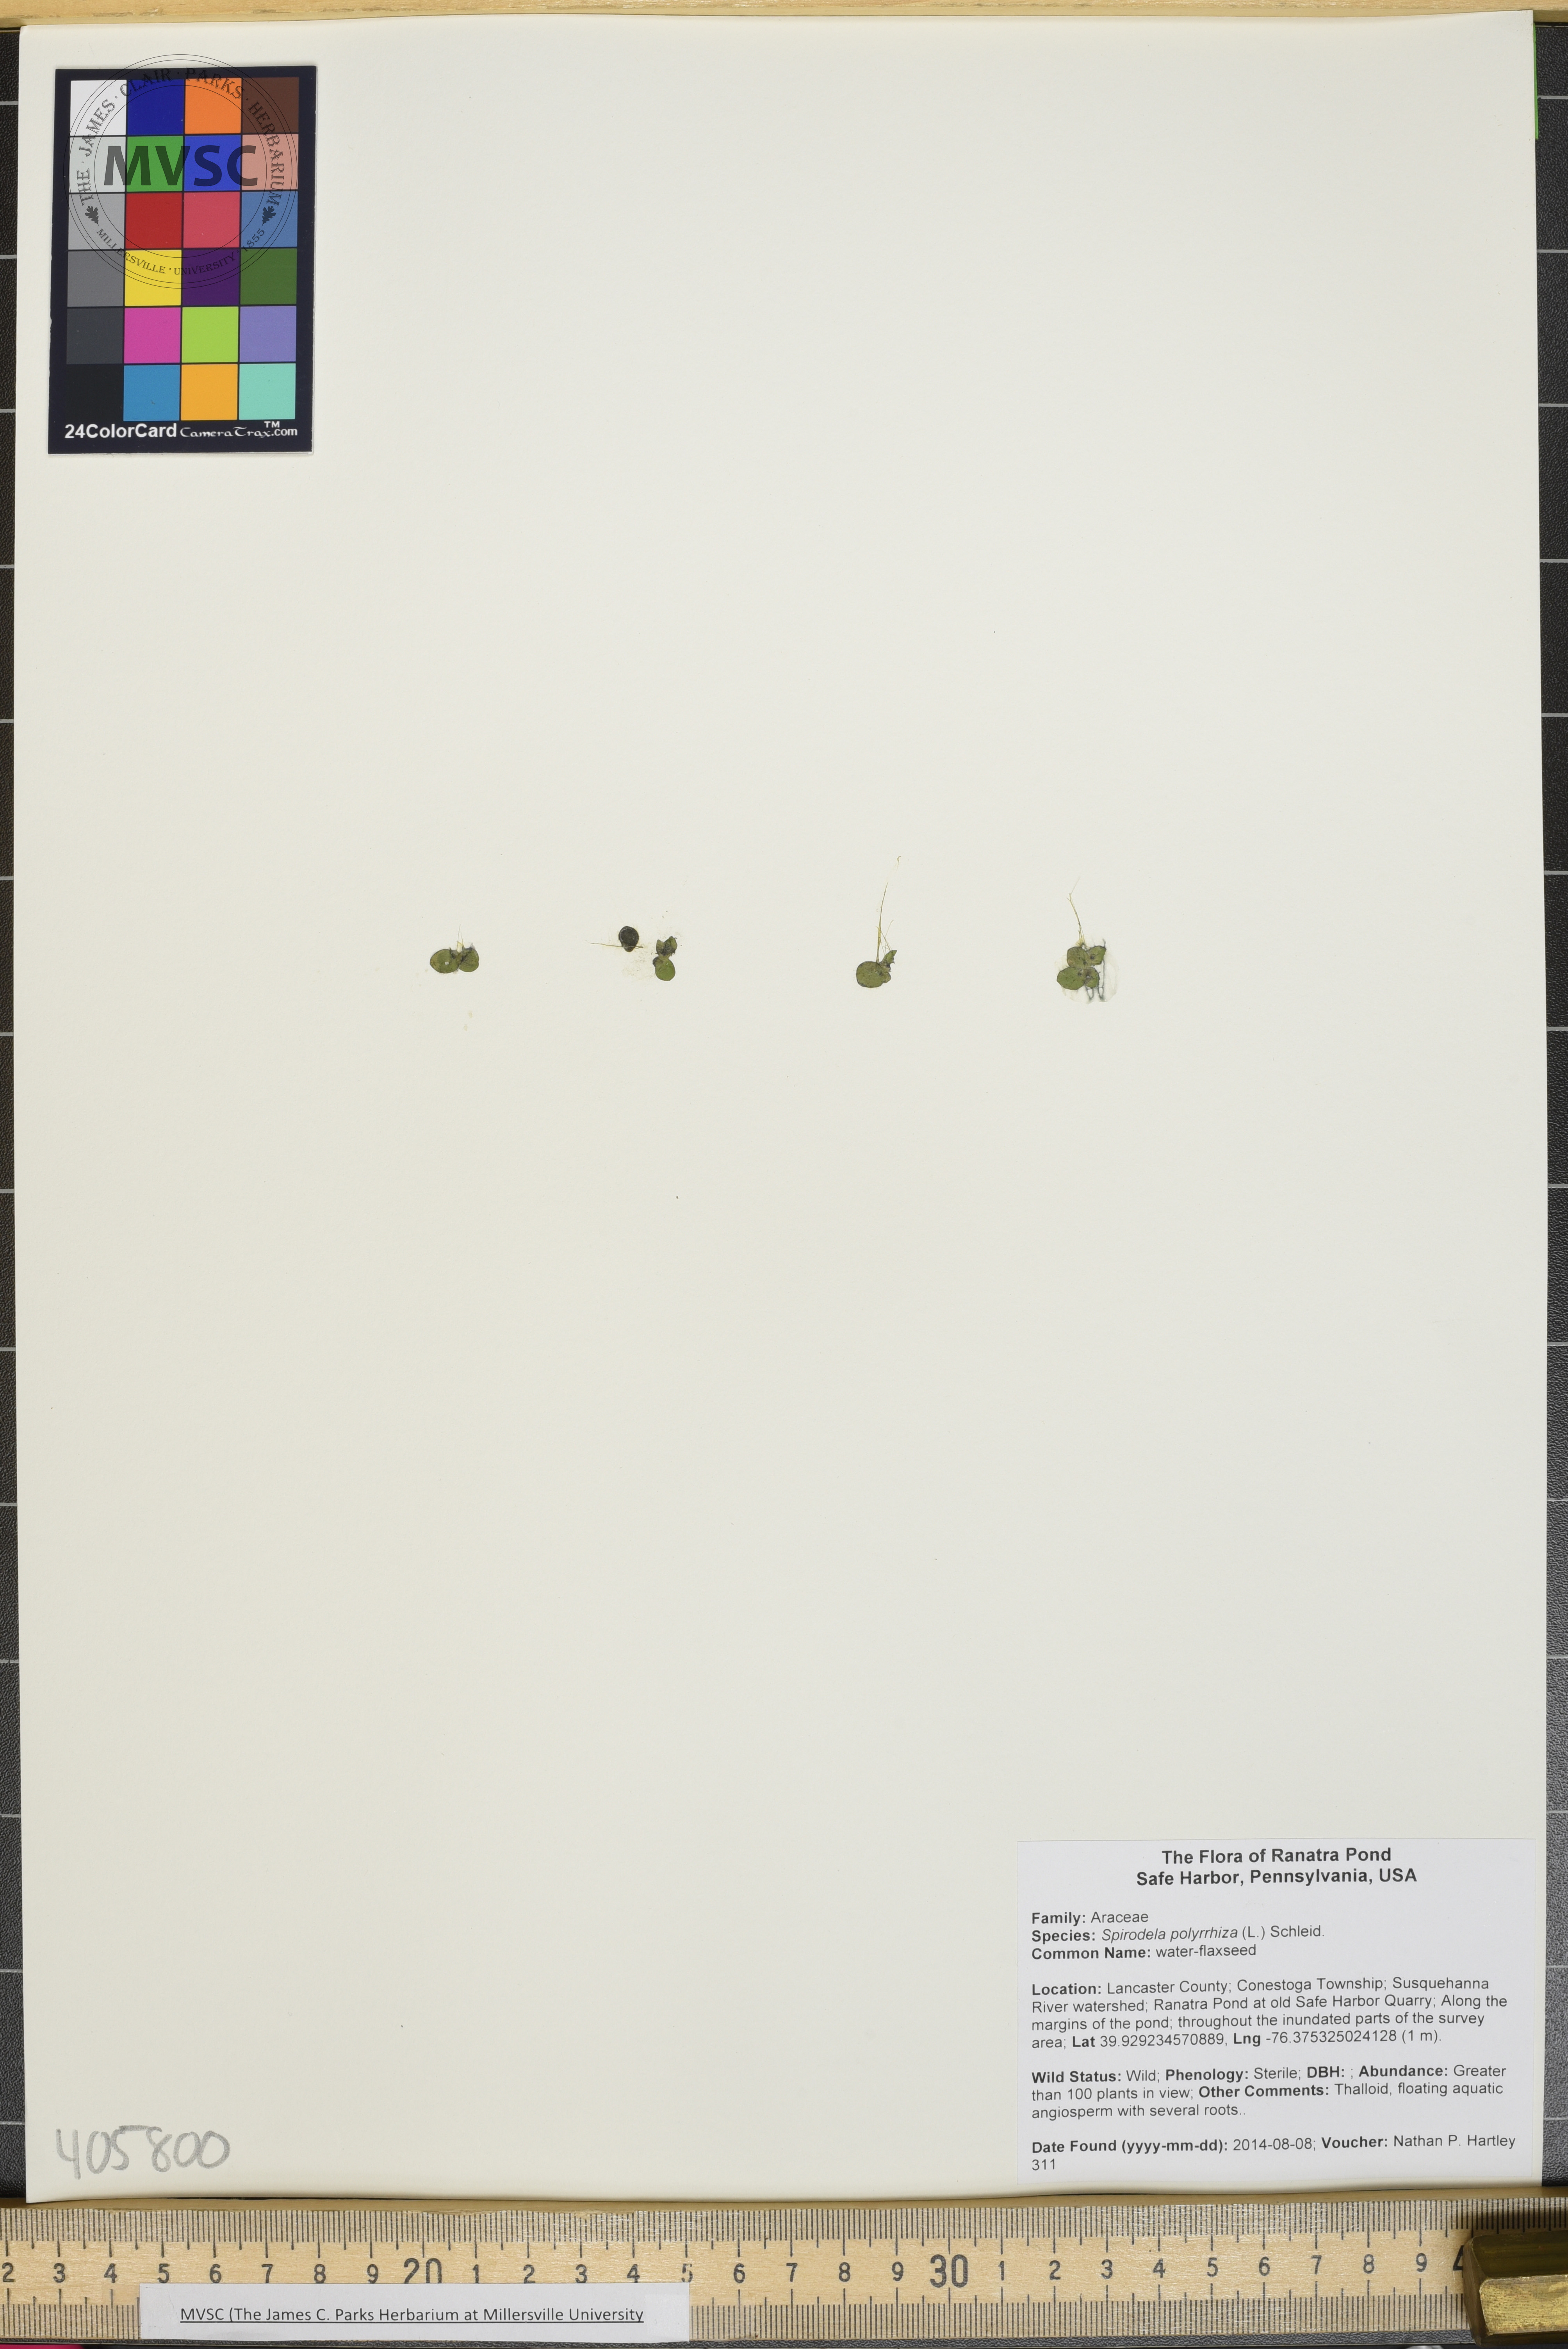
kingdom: Plantae
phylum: Tracheophyta
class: Liliopsida
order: Alismatales
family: Araceae
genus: Spirodela
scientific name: Spirodela polyrhiza
